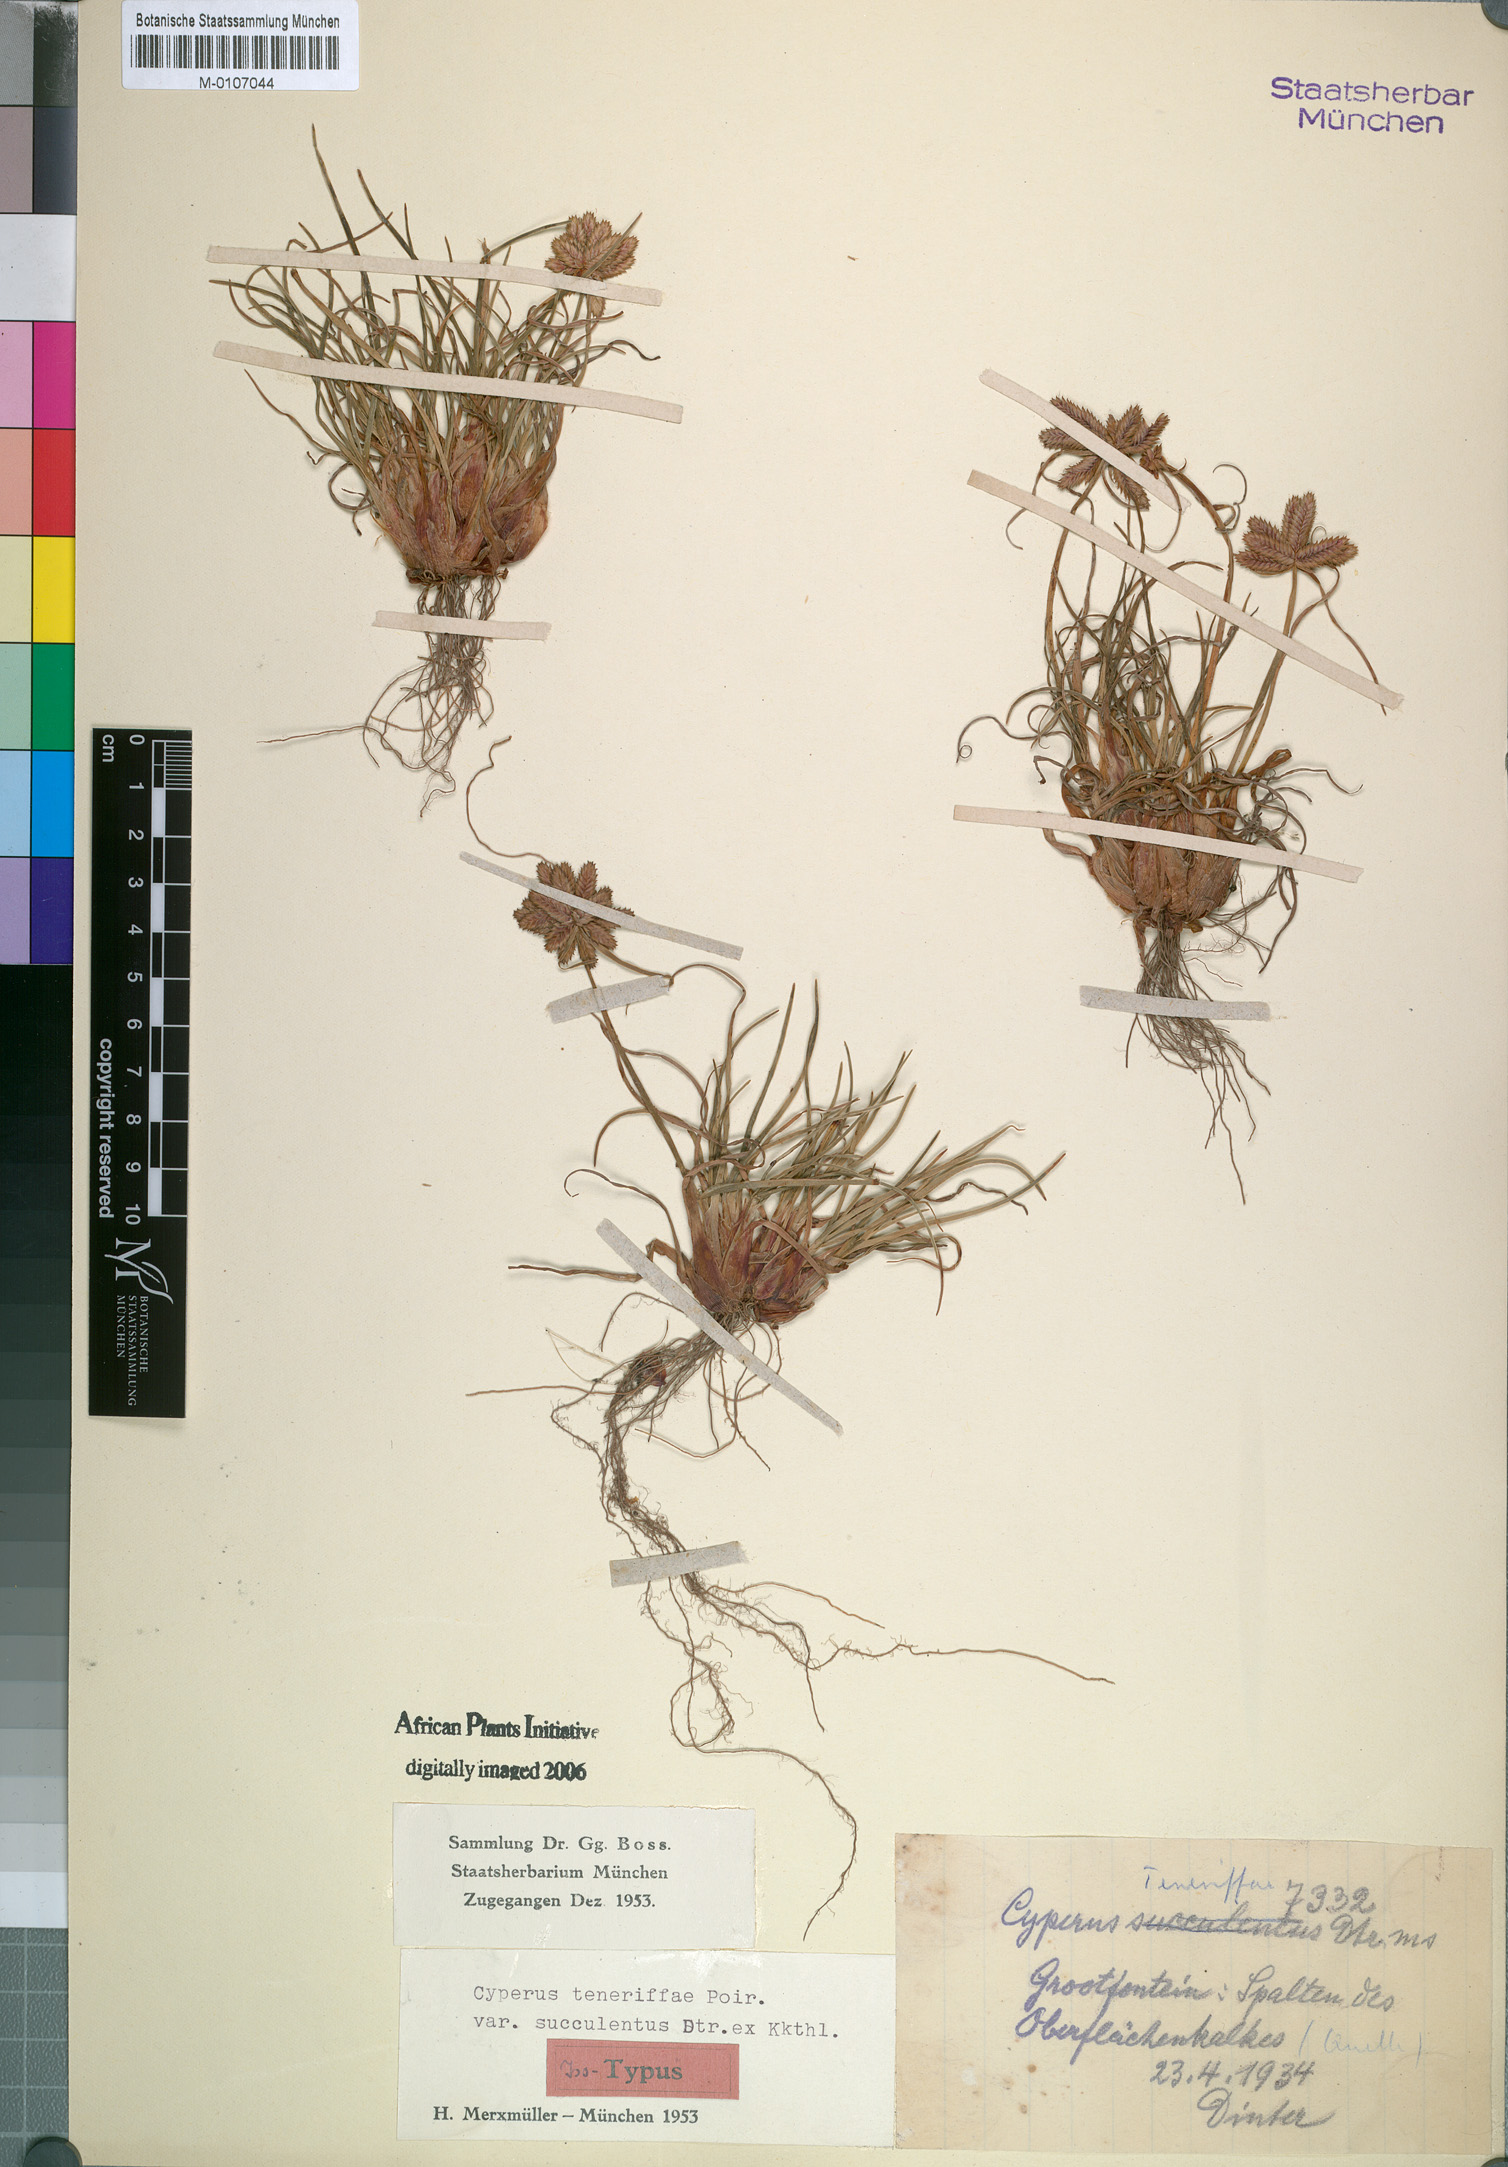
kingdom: Plantae
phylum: Tracheophyta
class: Liliopsida
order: Poales
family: Cyperaceae
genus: Cyperus
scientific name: Cyperus rubicundus
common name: Coco-grass
